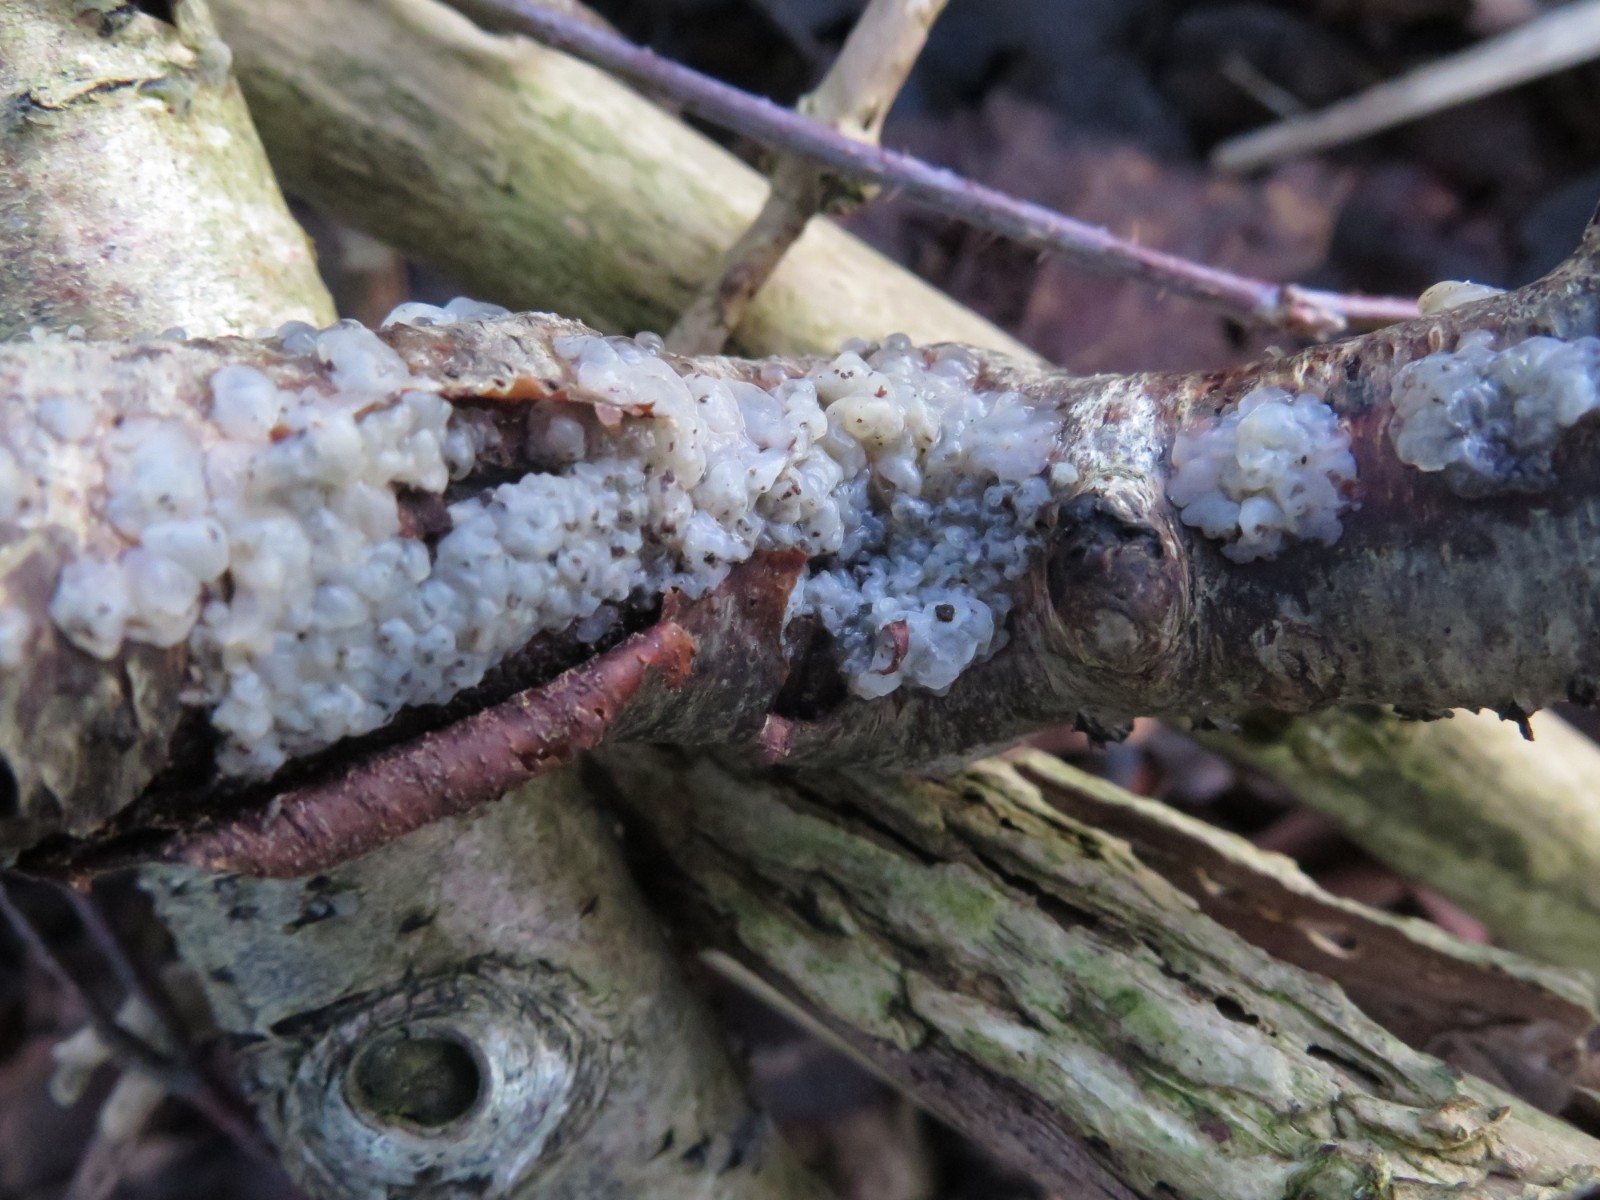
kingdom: Fungi
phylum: Basidiomycota
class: Agaricomycetes
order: Auriculariales
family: Auriculariaceae
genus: Exidia
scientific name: Exidia thuretiana
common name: hvidlig bævretop
